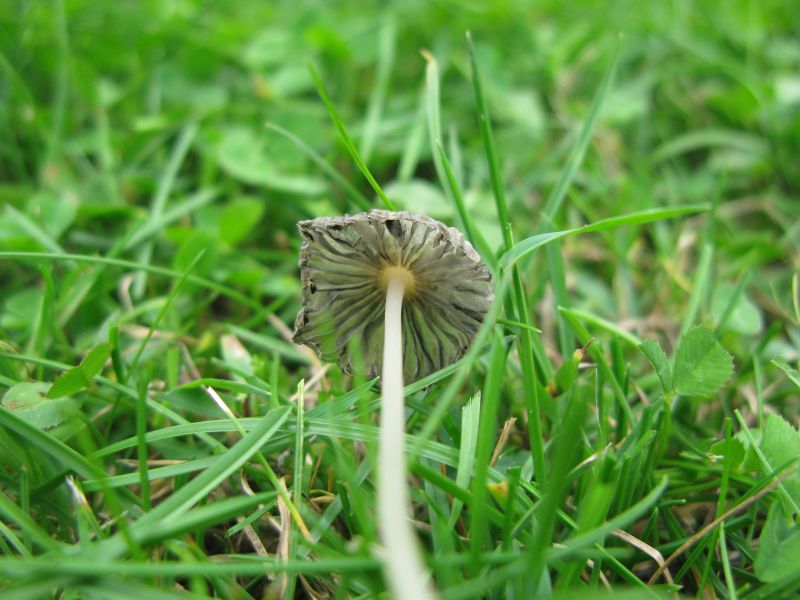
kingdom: Fungi
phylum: Basidiomycota
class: Agaricomycetes
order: Agaricales
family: Psathyrellaceae
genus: Parasola
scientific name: Parasola lactea
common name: glat hjulhat
